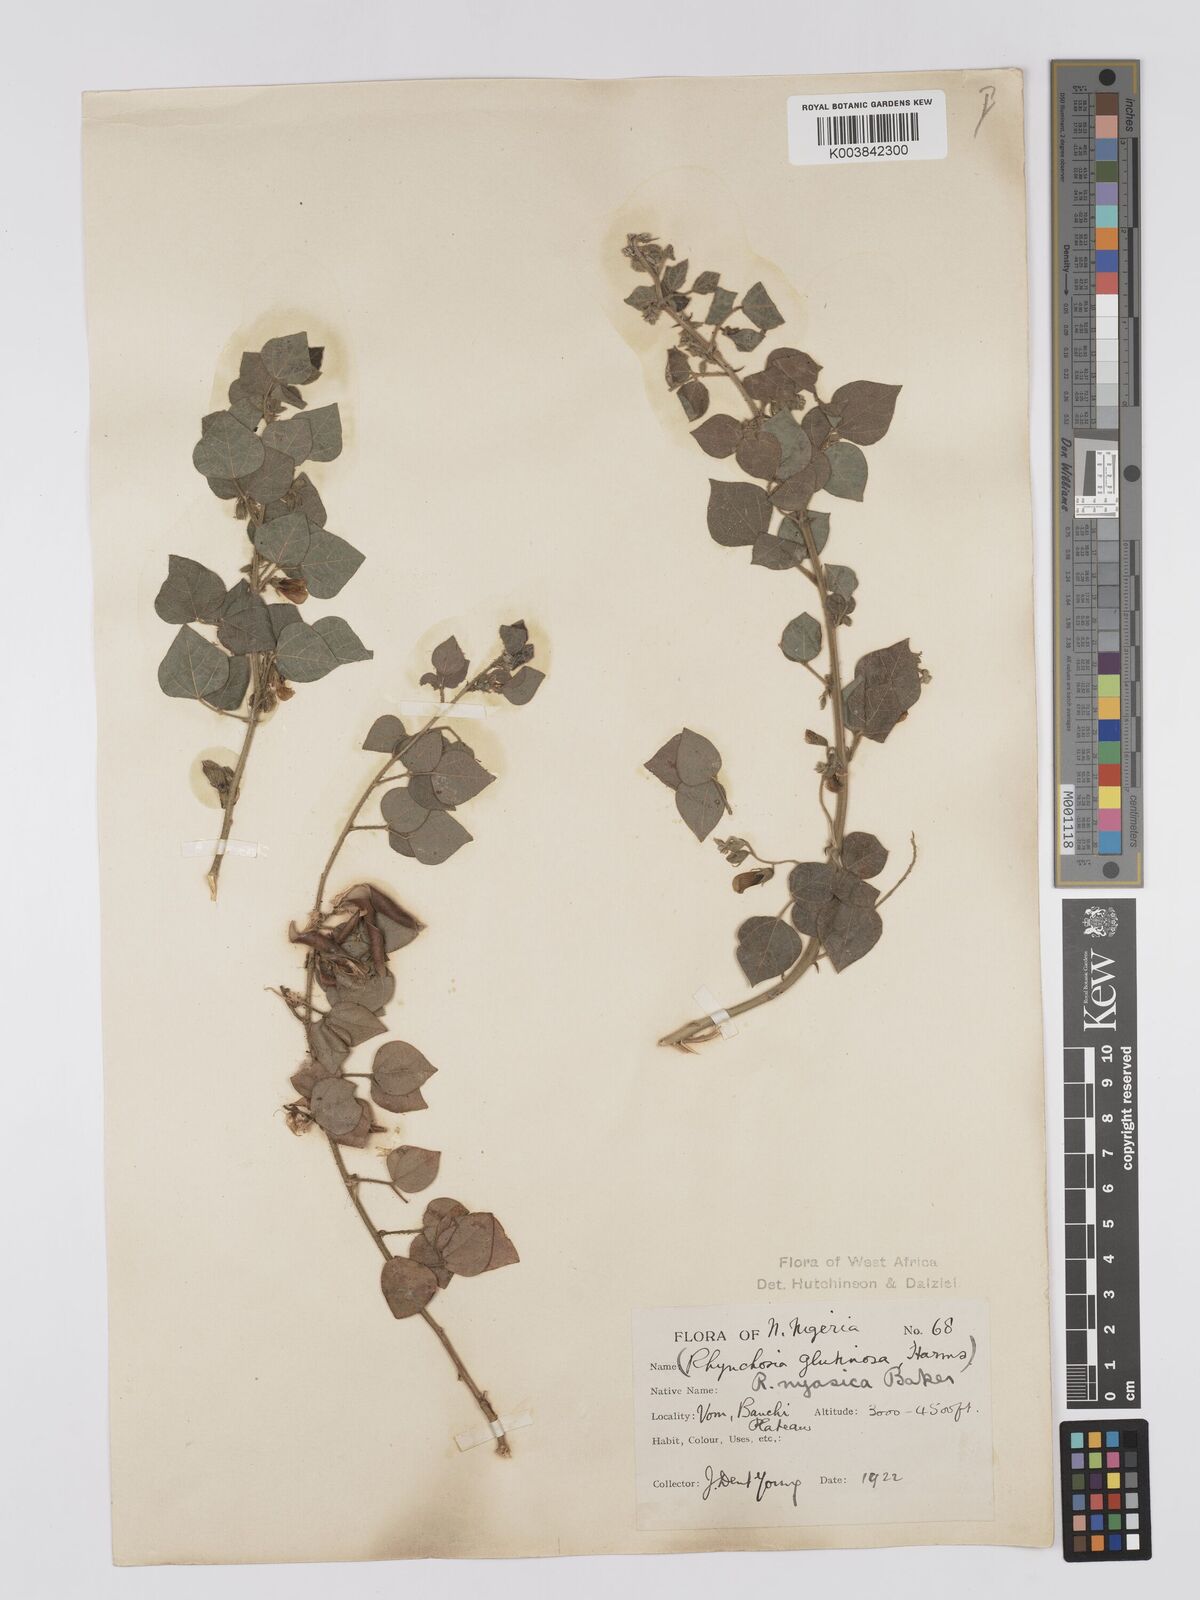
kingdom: Plantae
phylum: Tracheophyta
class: Magnoliopsida
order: Fabales
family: Fabaceae
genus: Rhynchosia
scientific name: Rhynchosia nyasica
